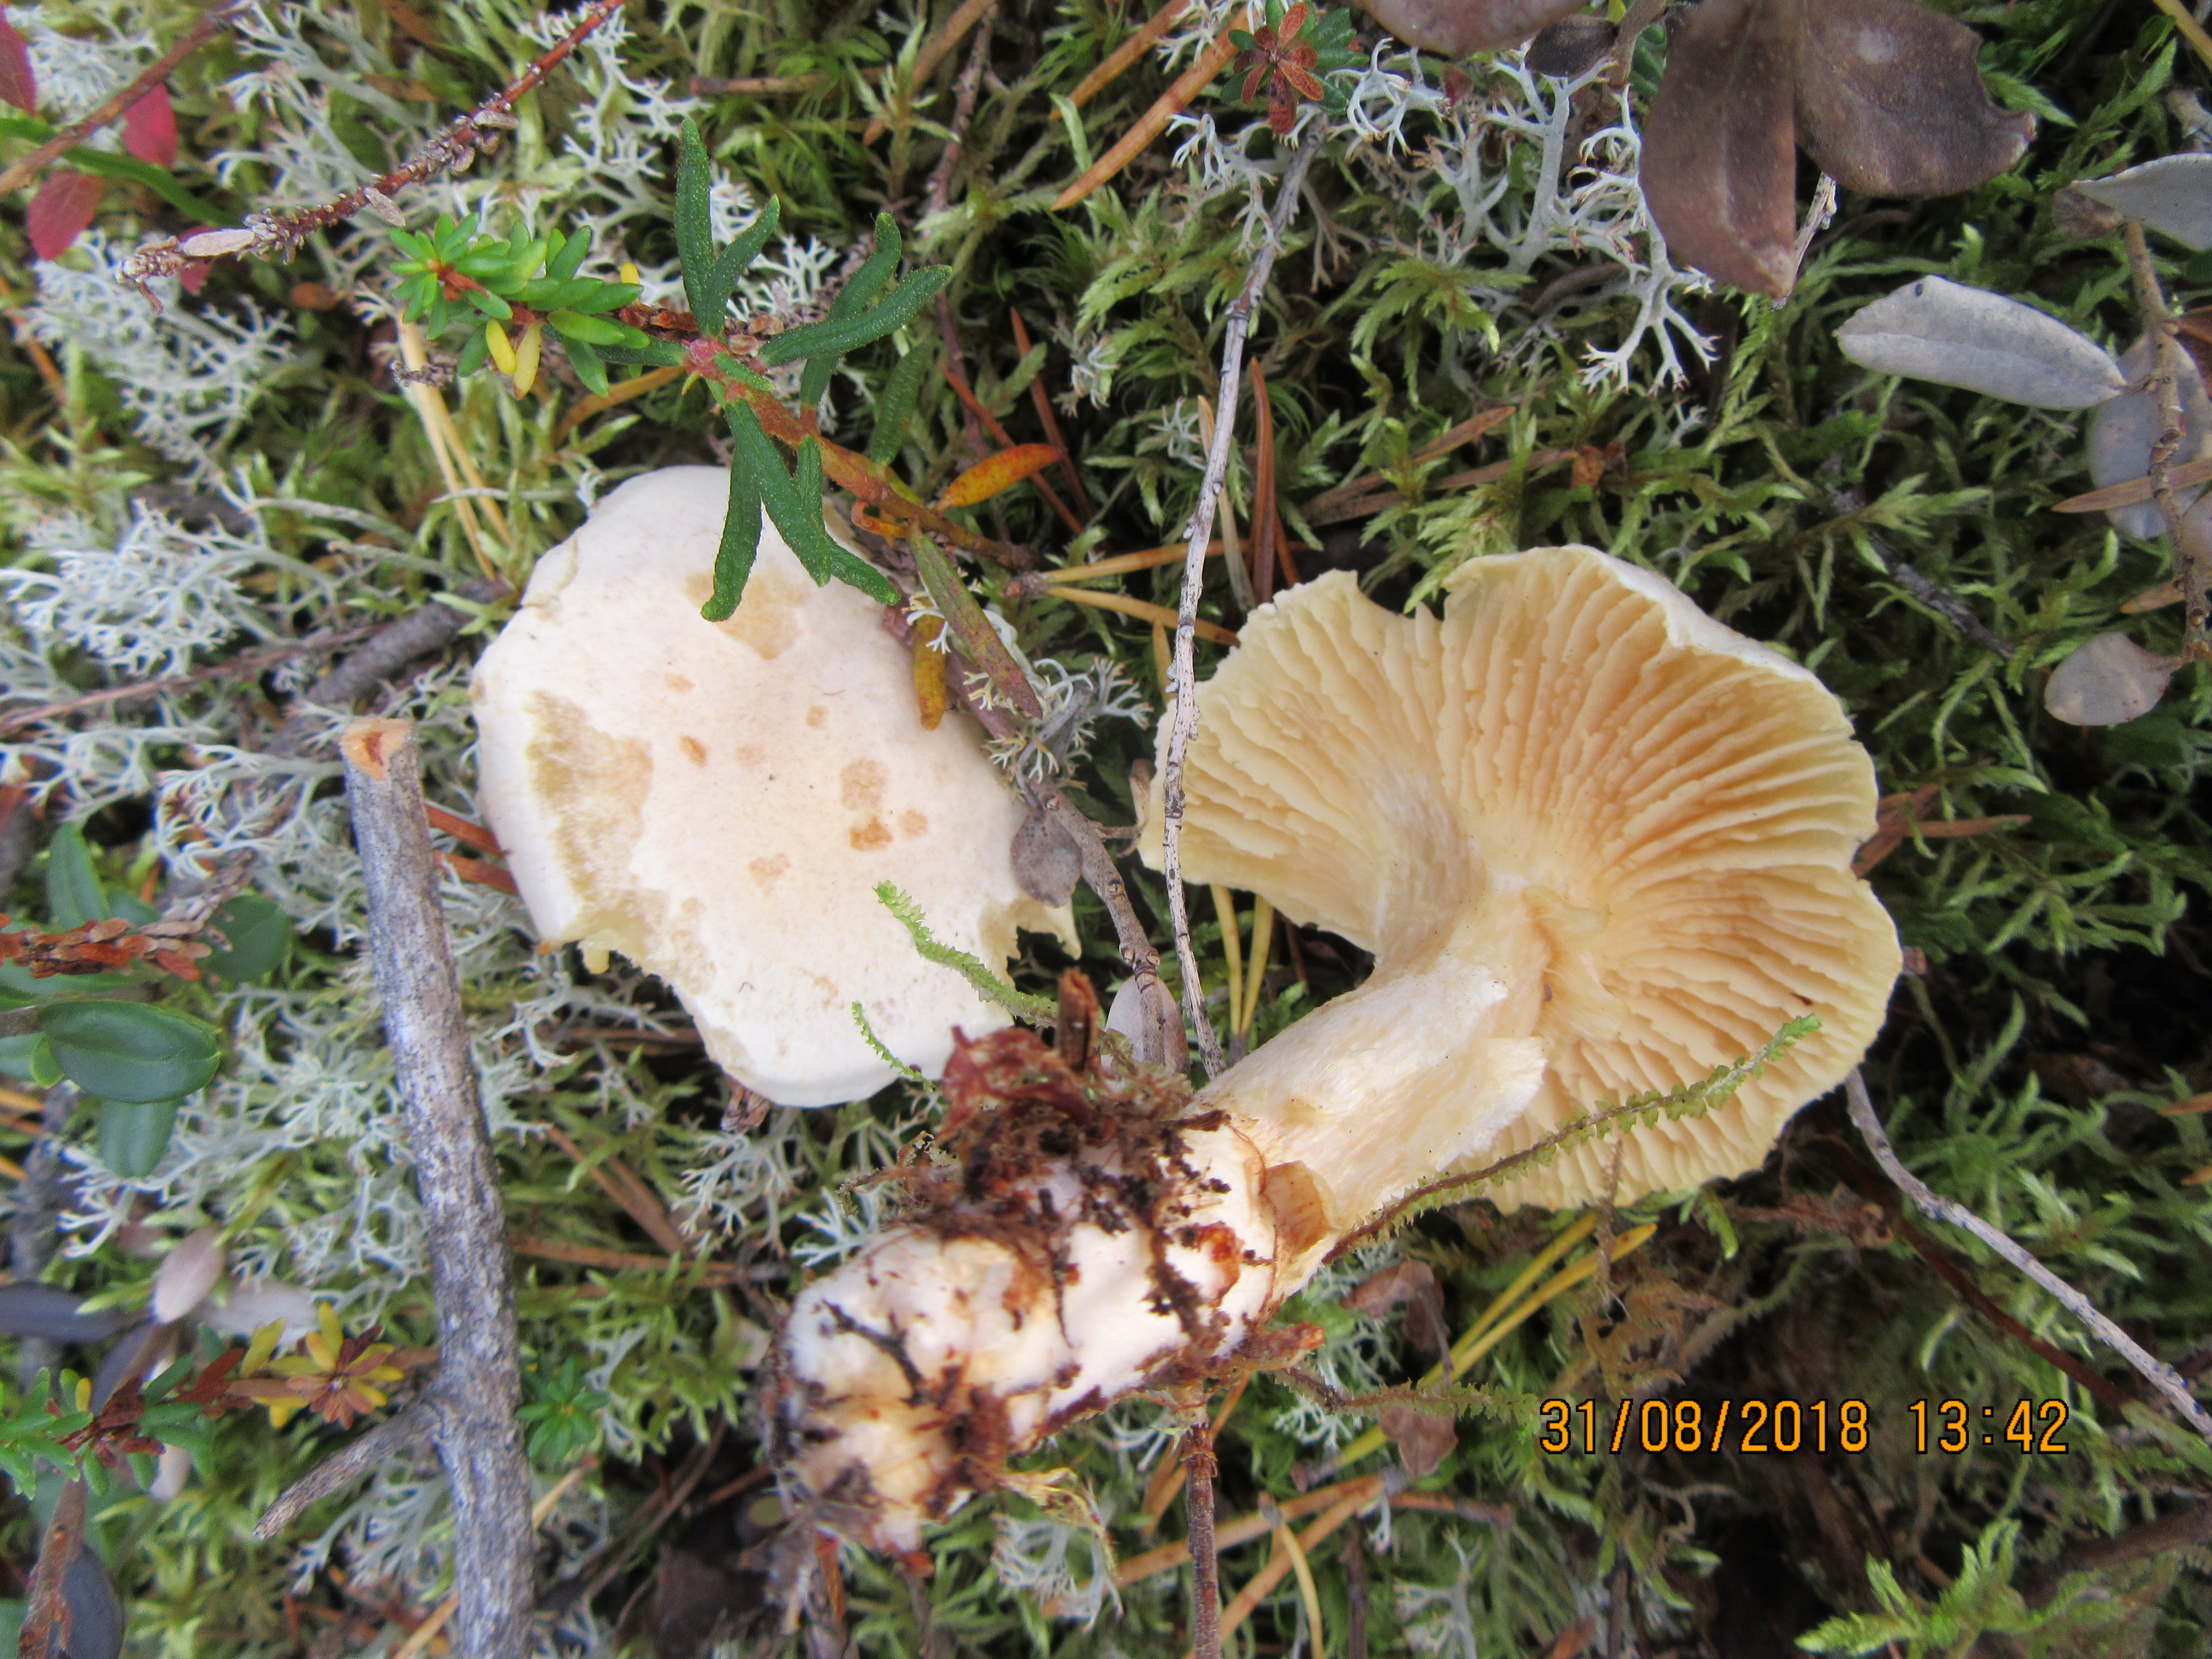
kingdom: Fungi
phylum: Basidiomycota
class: Agaricomycetes
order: Agaricales
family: Hygrophoraceae
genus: Cuphophyllus
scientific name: Cuphophyllus pratensis
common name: Meadow waxcap
